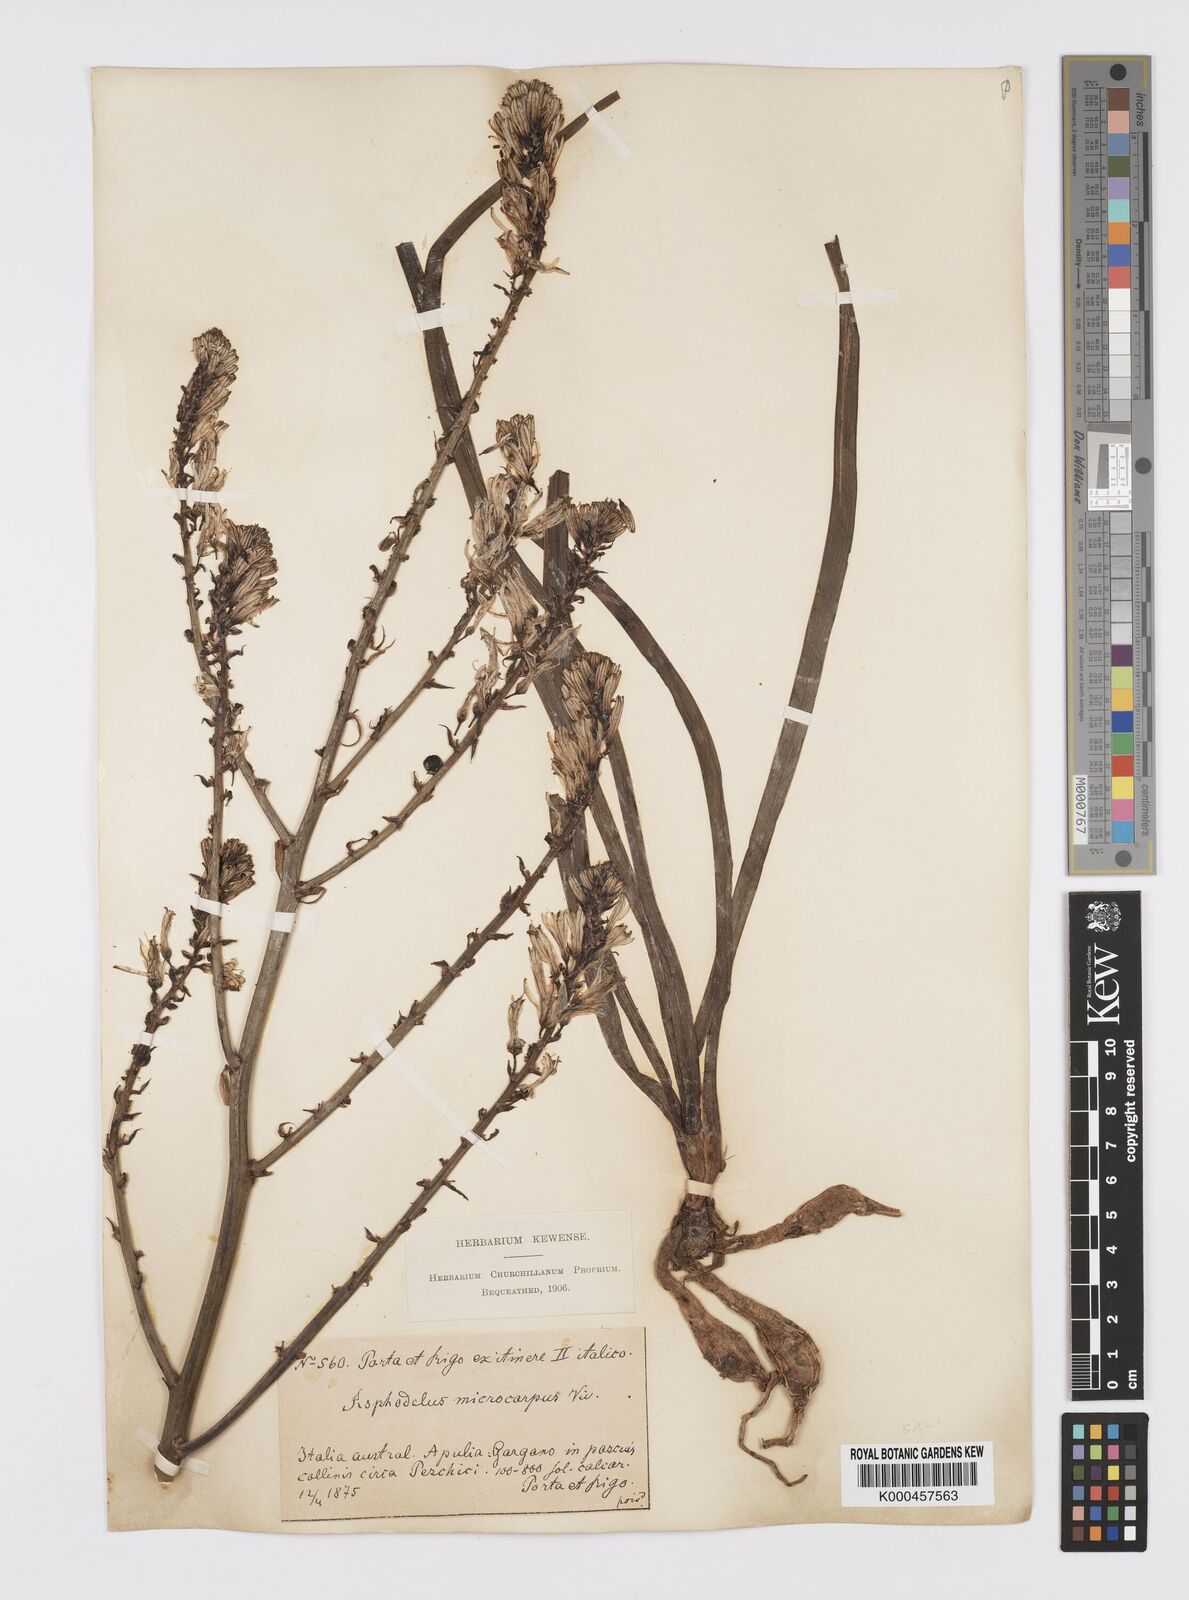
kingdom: Plantae
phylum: Tracheophyta
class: Liliopsida
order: Asparagales
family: Asphodelaceae
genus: Asphodelus
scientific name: Asphodelus aestivus
